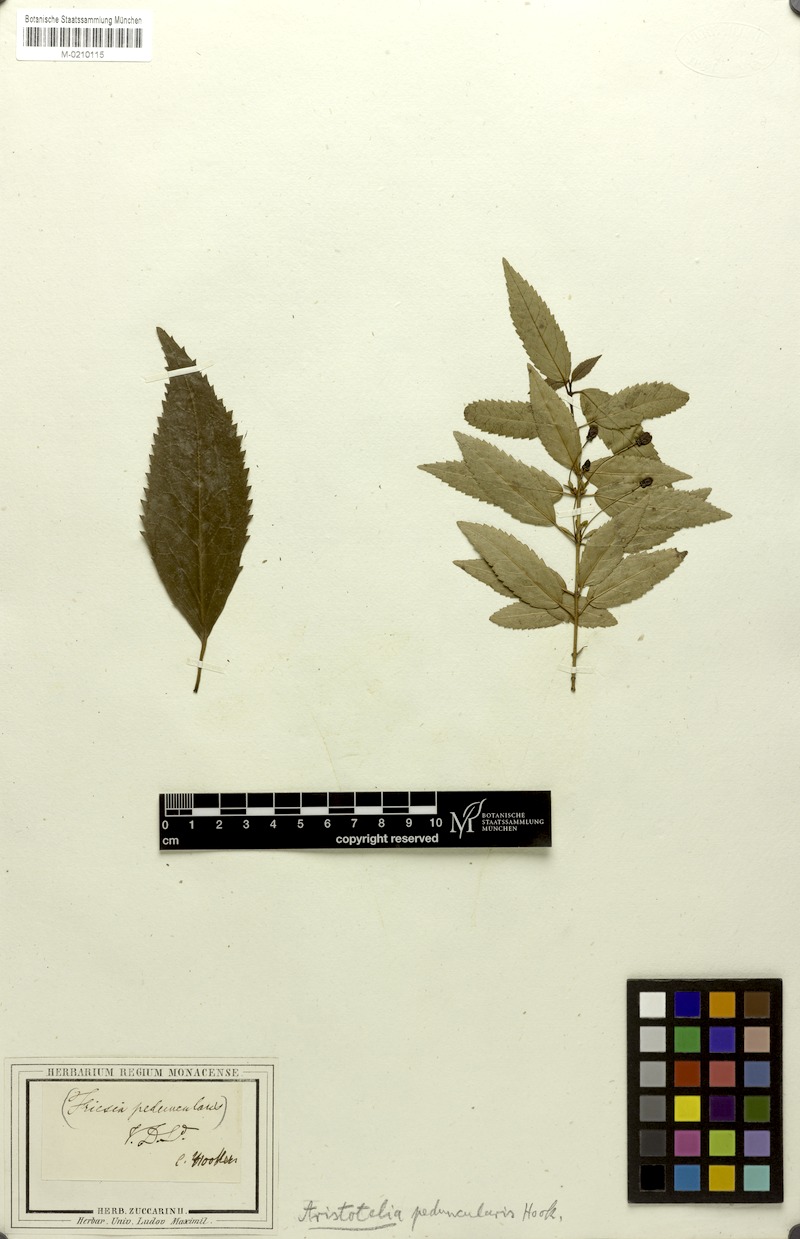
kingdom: Plantae
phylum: Tracheophyta
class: Magnoliopsida
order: Oxalidales
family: Elaeocarpaceae
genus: Aristotelia
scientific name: Aristotelia peduncularis
